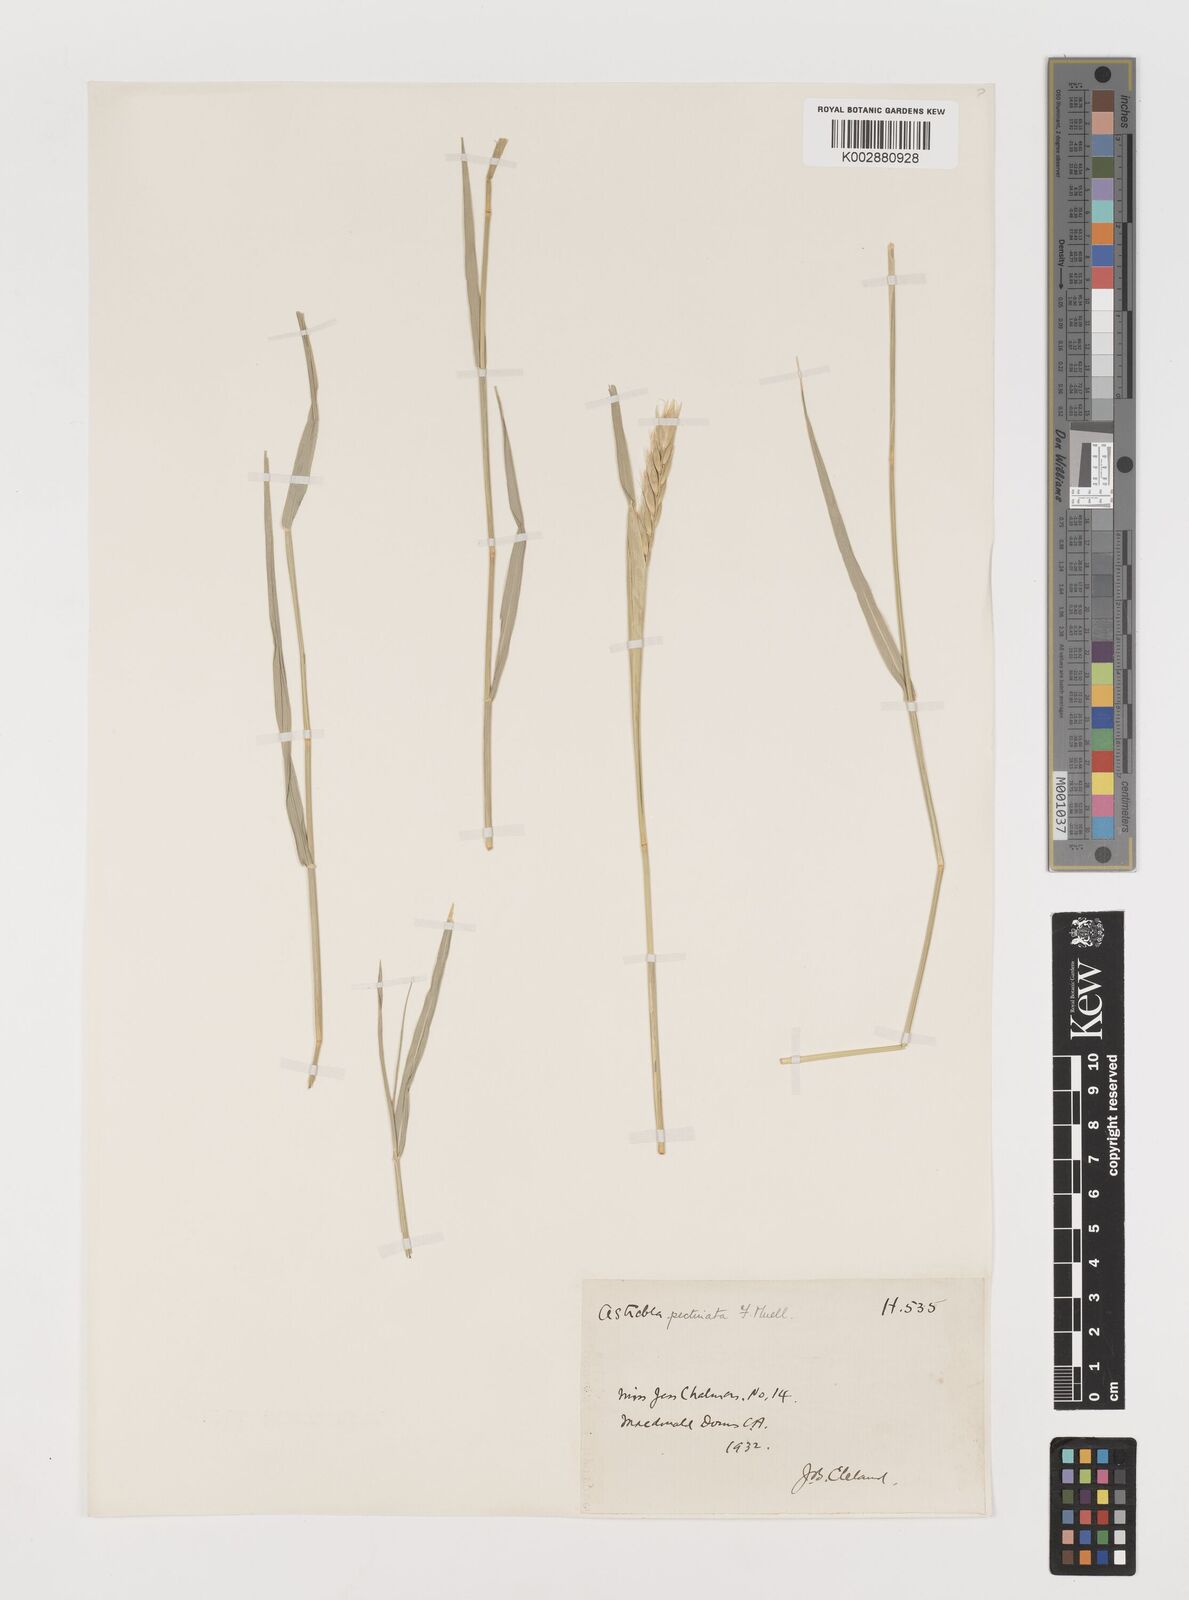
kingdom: Plantae
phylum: Tracheophyta
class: Liliopsida
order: Poales
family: Poaceae
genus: Astrebla
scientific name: Astrebla pectinata
